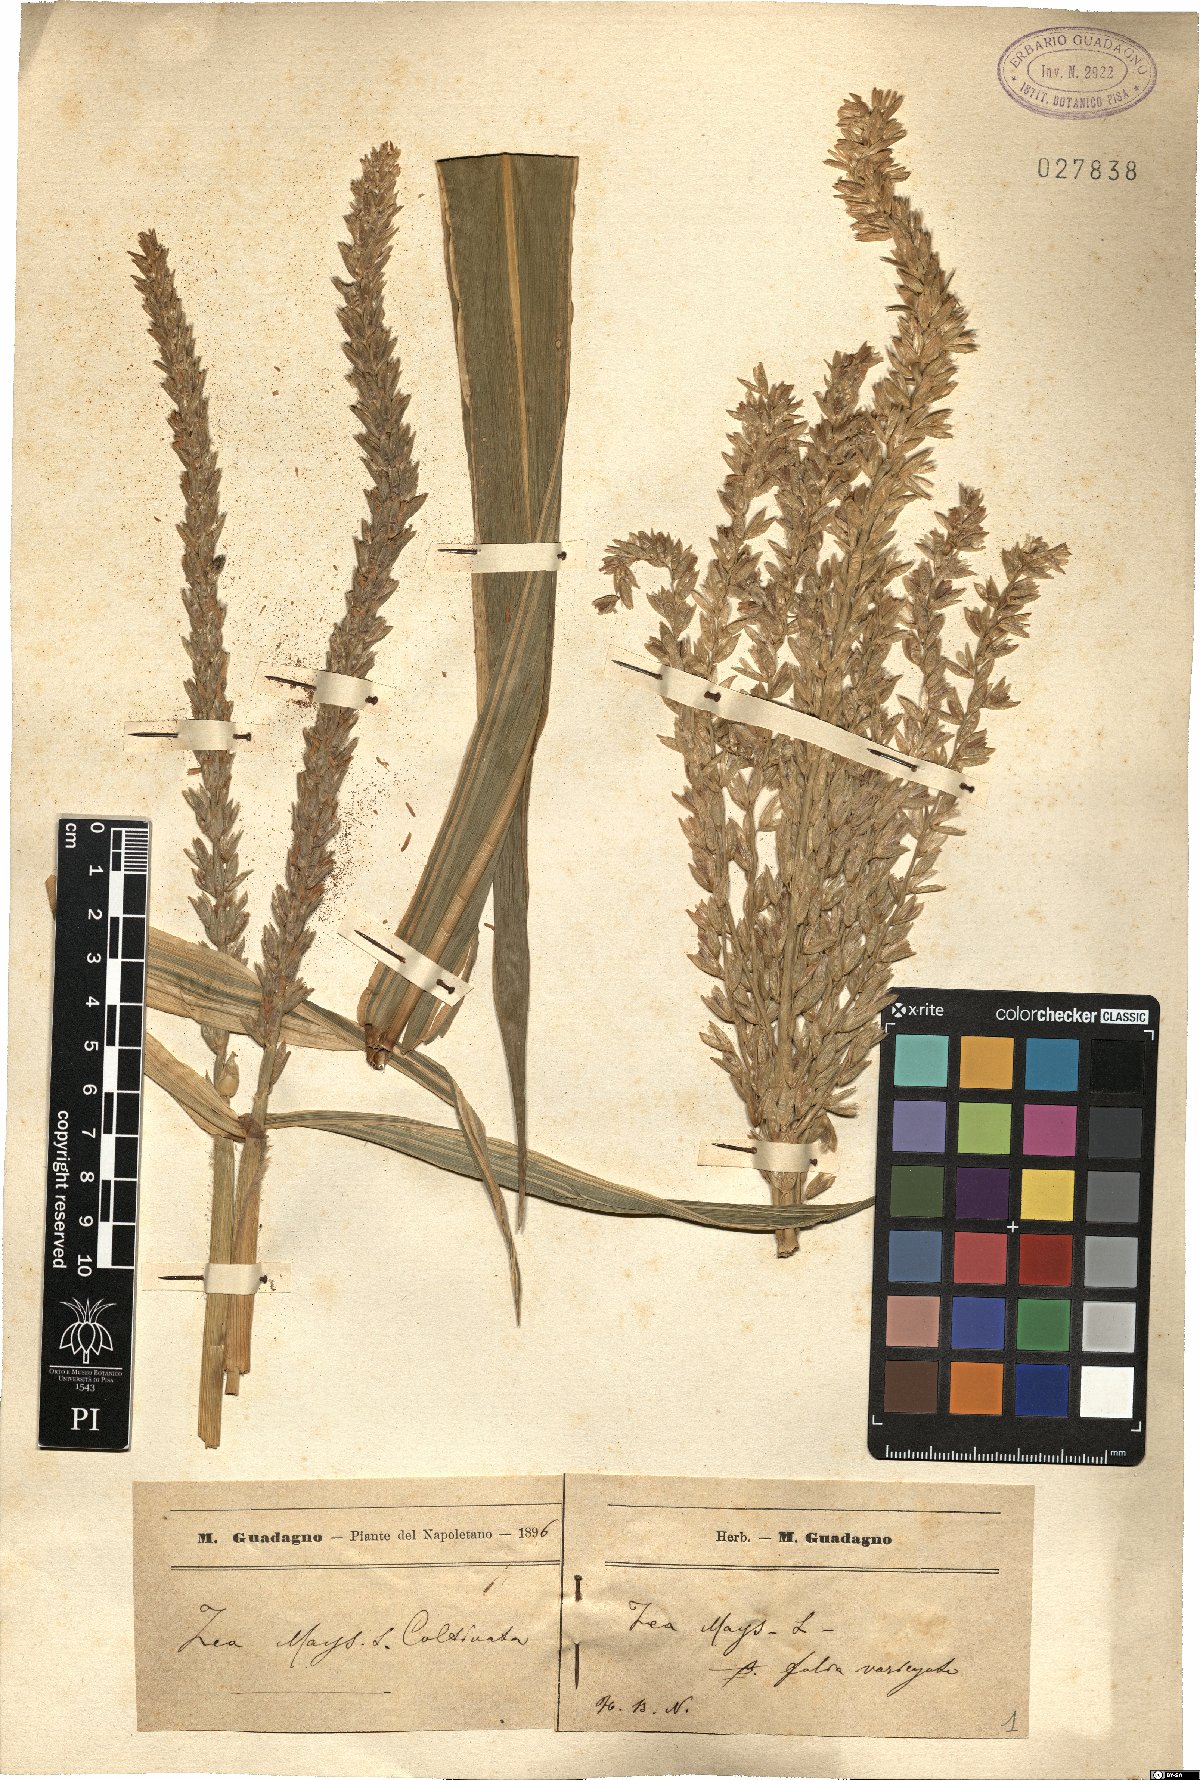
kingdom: Plantae
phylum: Tracheophyta
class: Liliopsida
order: Poales
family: Poaceae
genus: Zea
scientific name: Zea mays
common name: Maize
